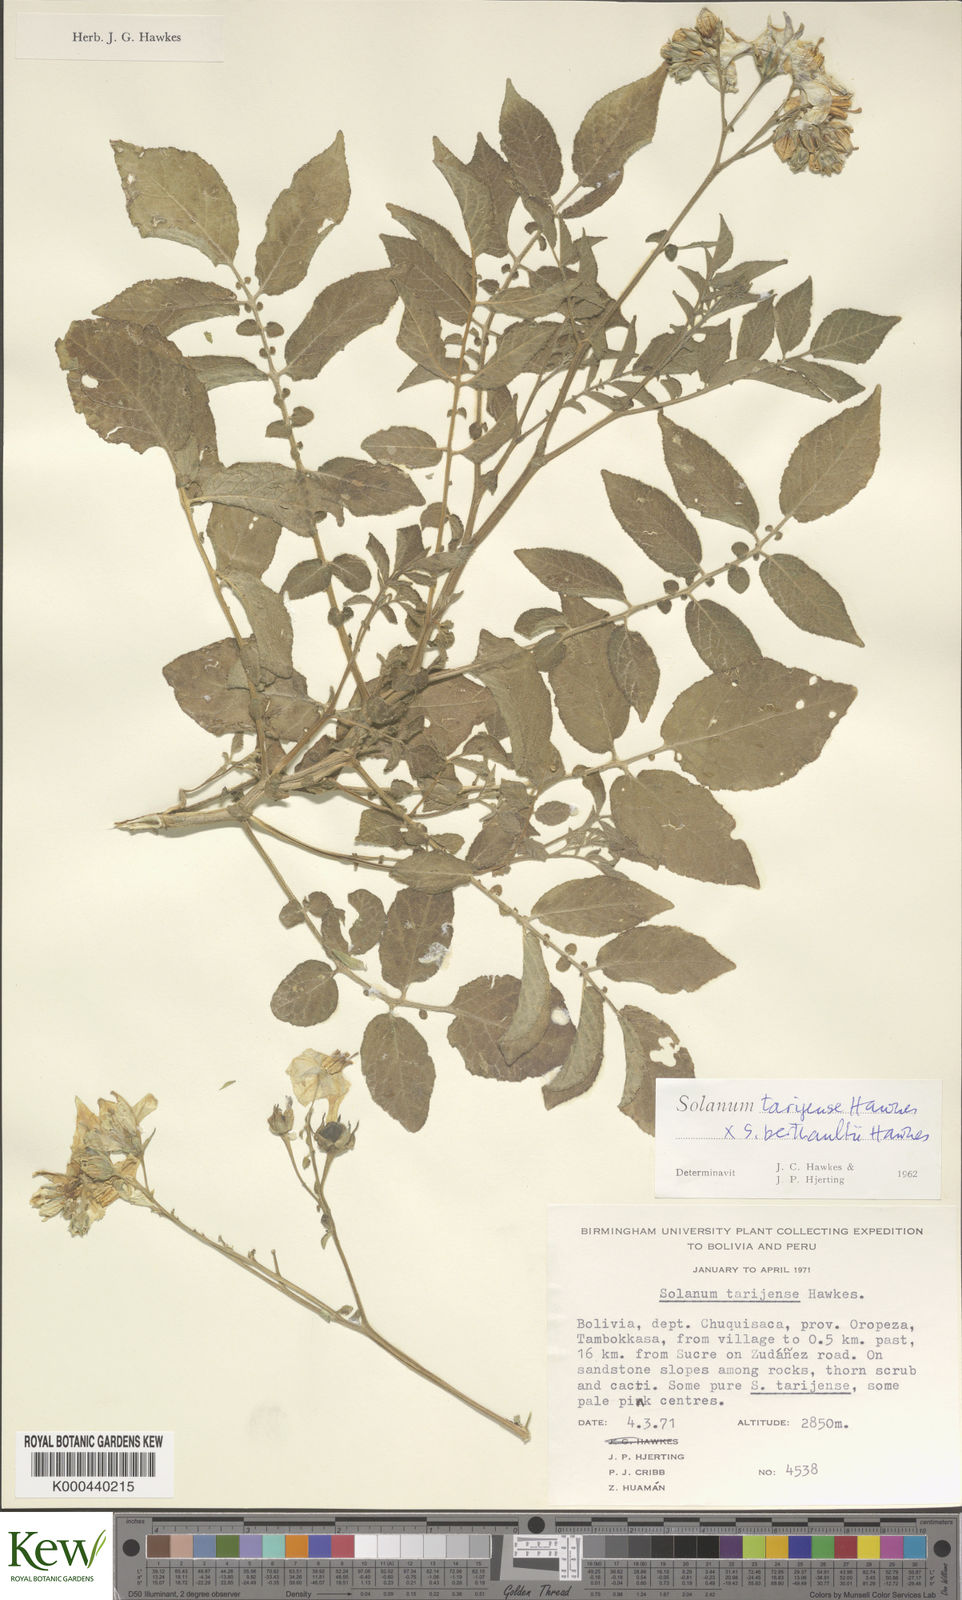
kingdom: Plantae
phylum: Tracheophyta
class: Magnoliopsida
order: Solanales
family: Solanaceae
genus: Solanum
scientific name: Solanum tarijense
